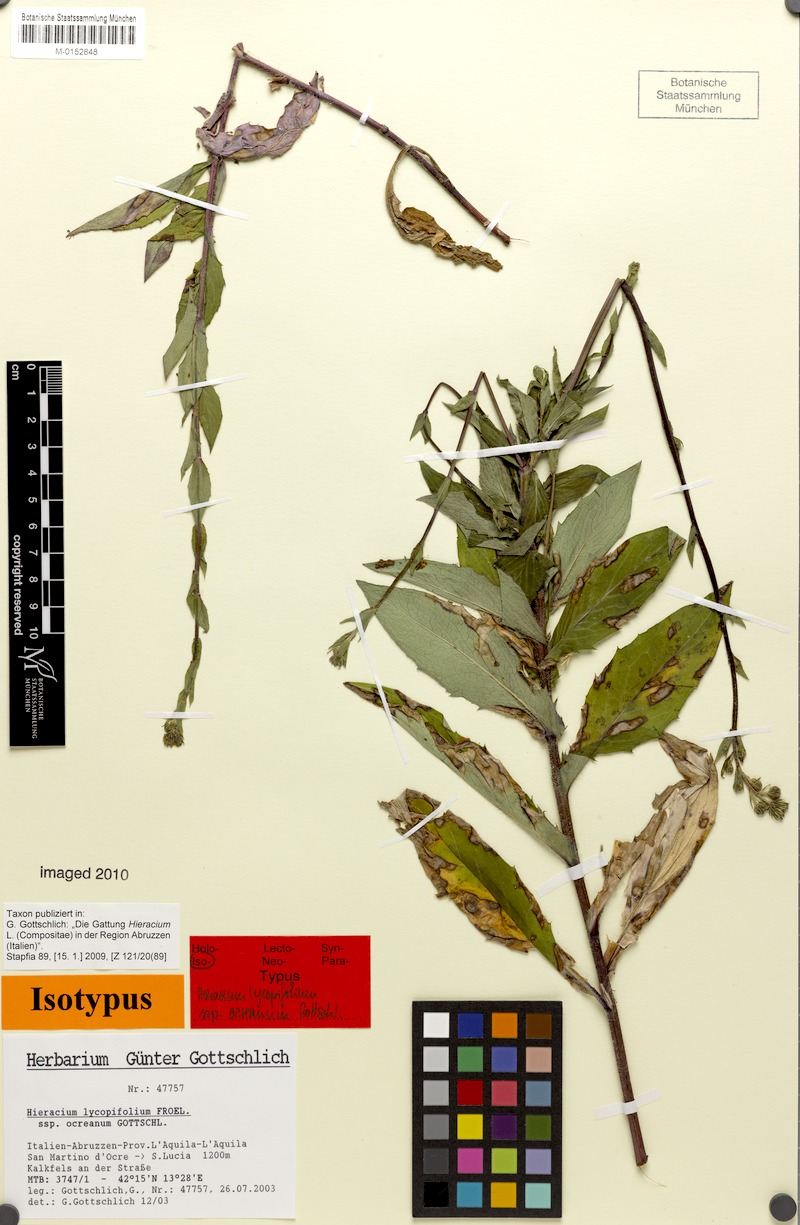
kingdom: Plantae
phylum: Tracheophyta
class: Magnoliopsida
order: Asterales
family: Asteraceae
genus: Hieracium
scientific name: Hieracium lycopifolium
